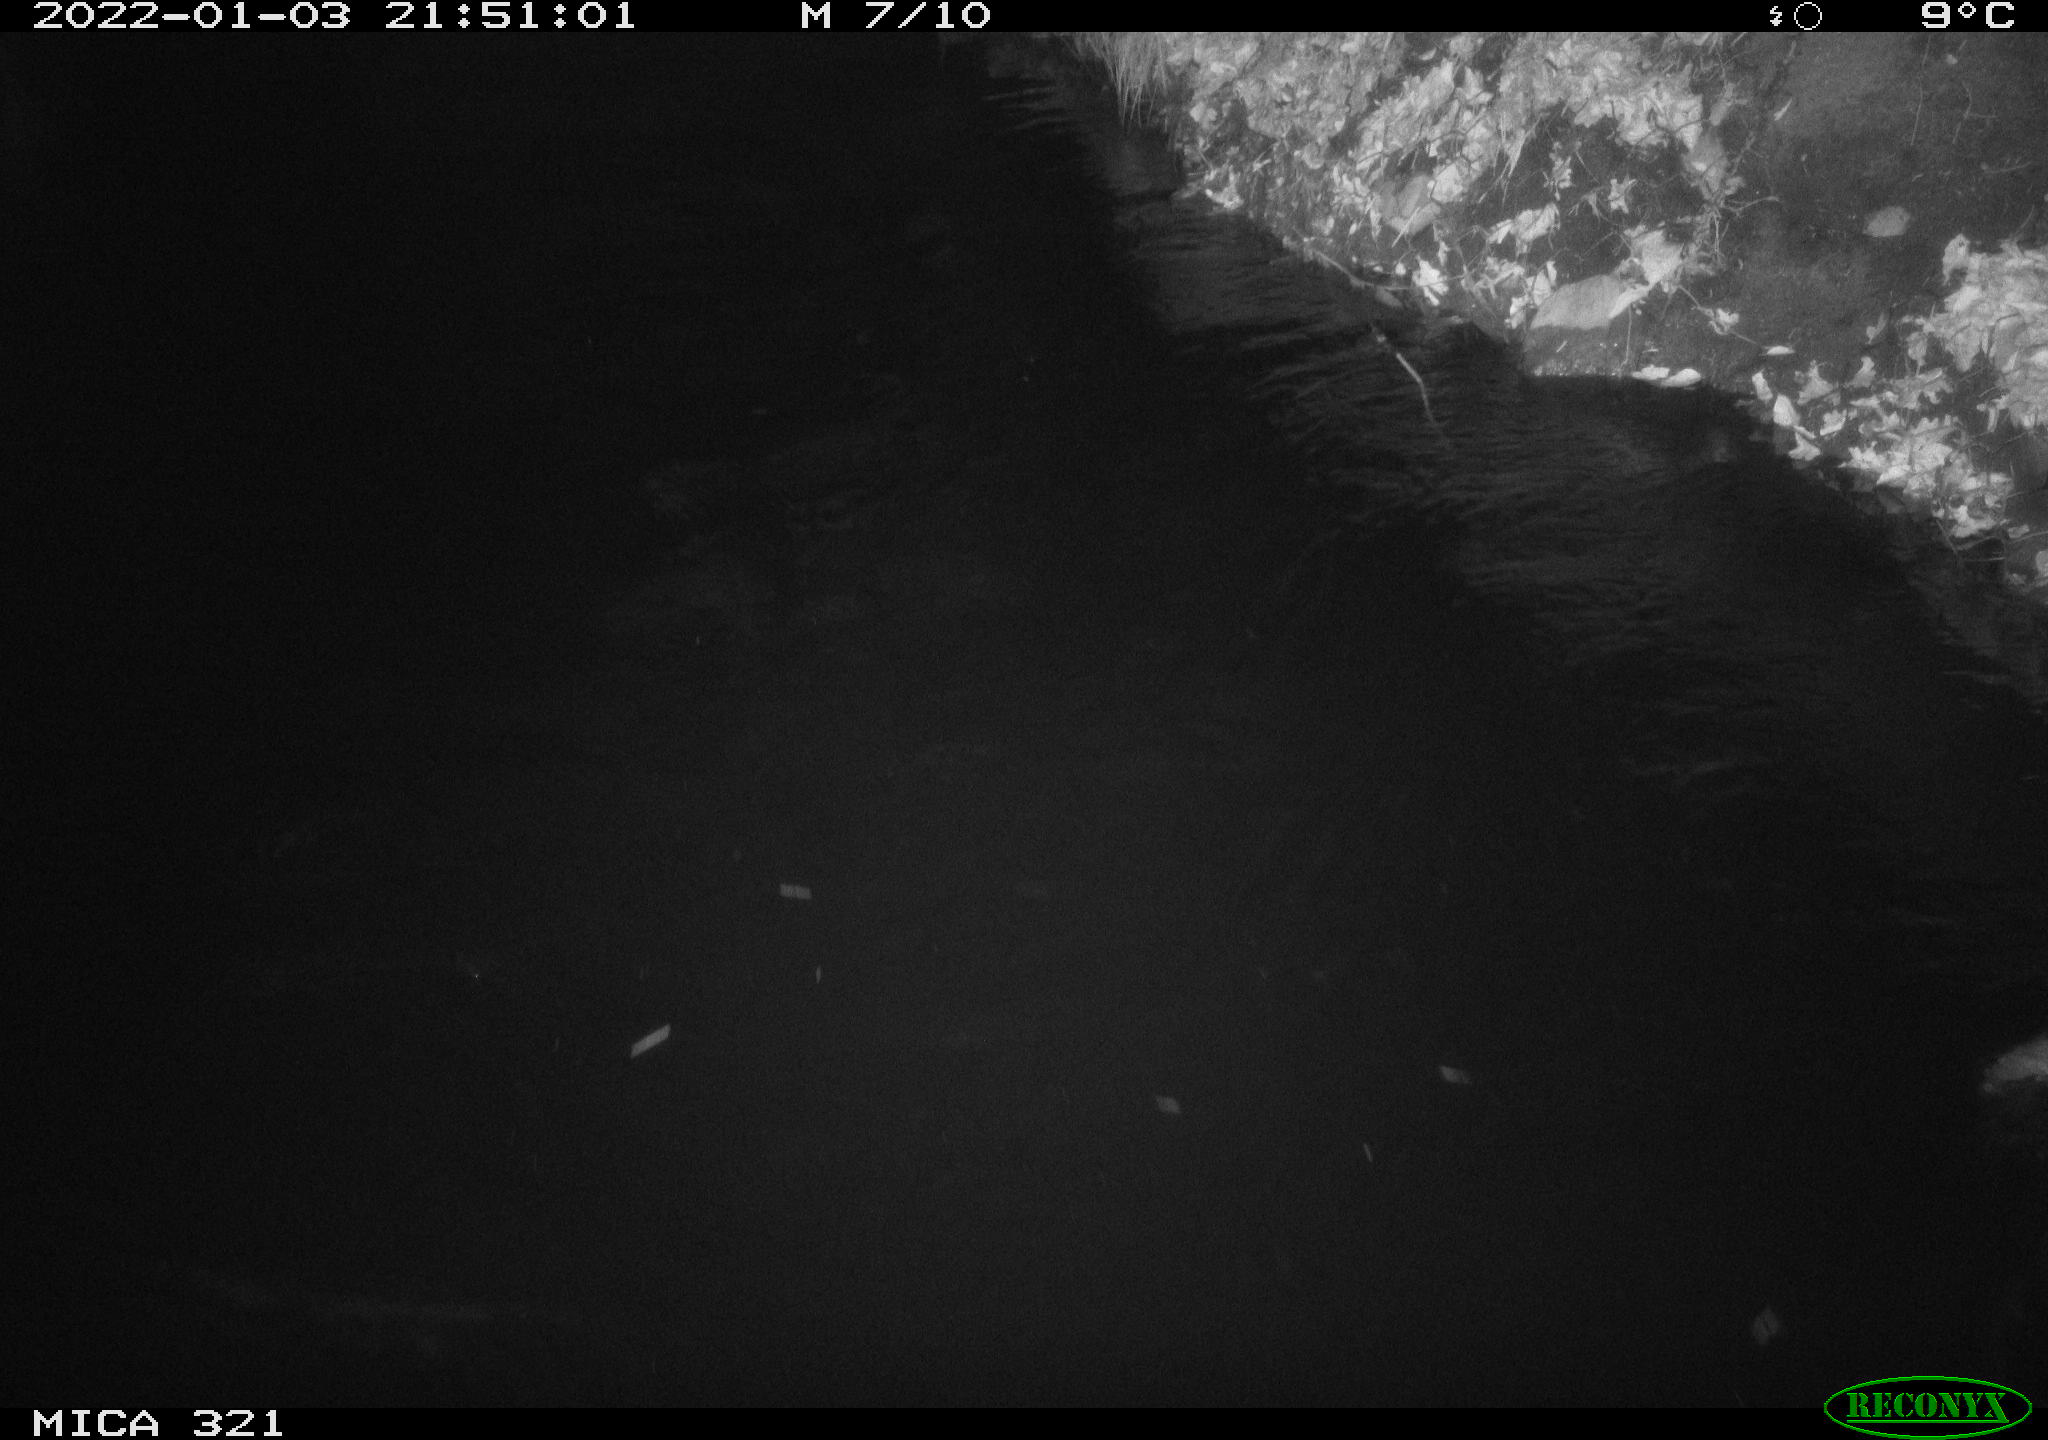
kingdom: Animalia
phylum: Chordata
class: Aves
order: Anseriformes
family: Anatidae
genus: Anas
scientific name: Anas platyrhynchos
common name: Mallard
